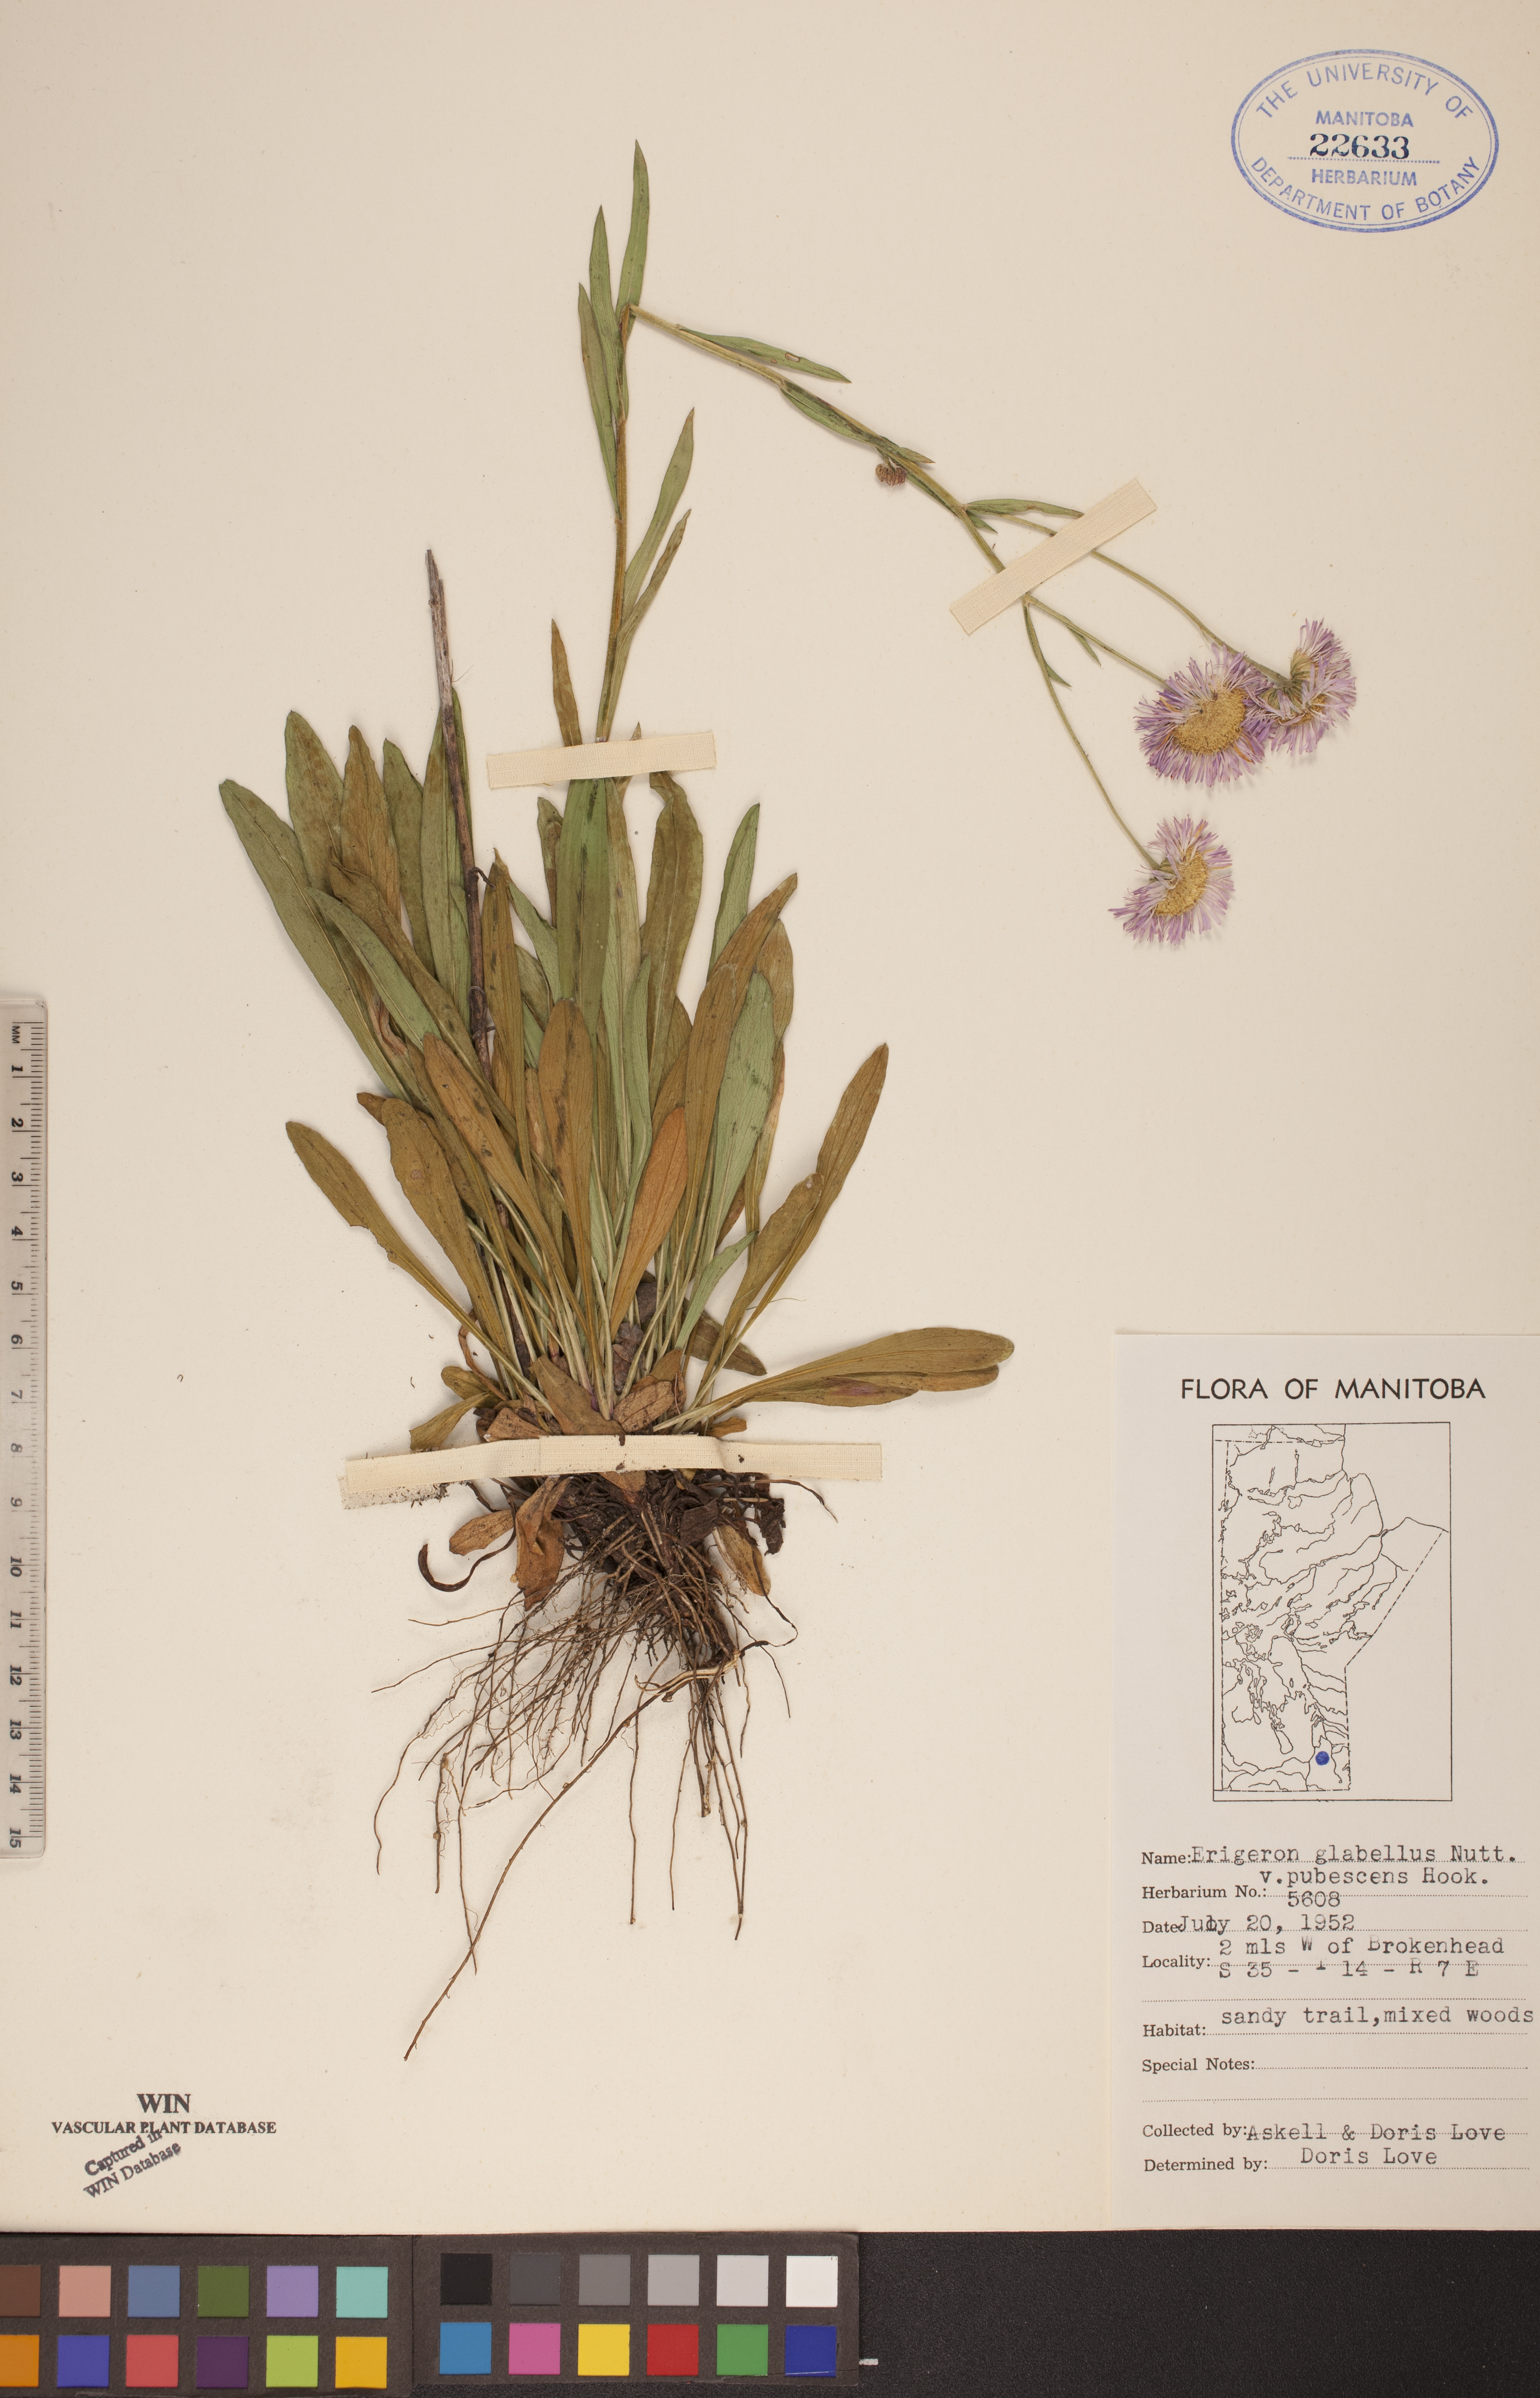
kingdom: Plantae
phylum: Tracheophyta
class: Magnoliopsida
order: Asterales
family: Asteraceae
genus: Erigeron
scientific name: Erigeron glabellus
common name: Smooth fleabane
